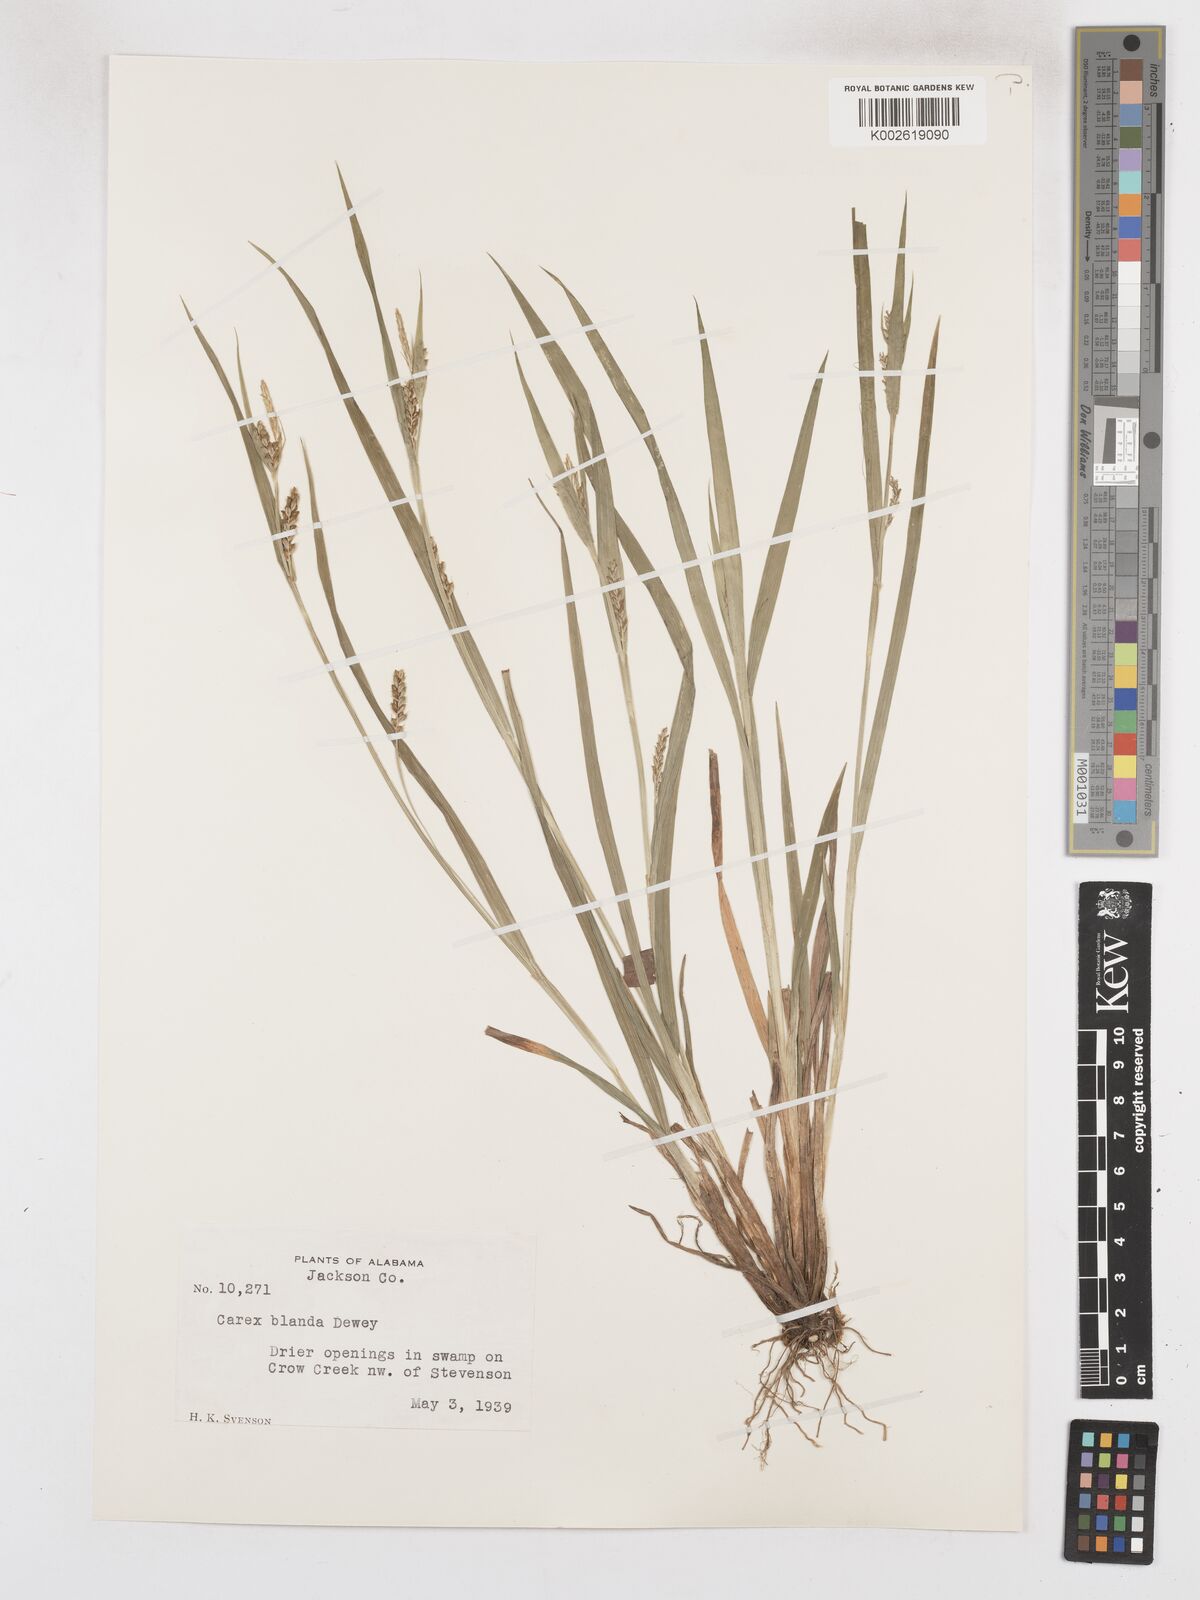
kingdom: Plantae
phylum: Tracheophyta
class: Liliopsida
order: Poales
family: Cyperaceae
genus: Carex
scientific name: Carex blanda
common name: Bland sedge
